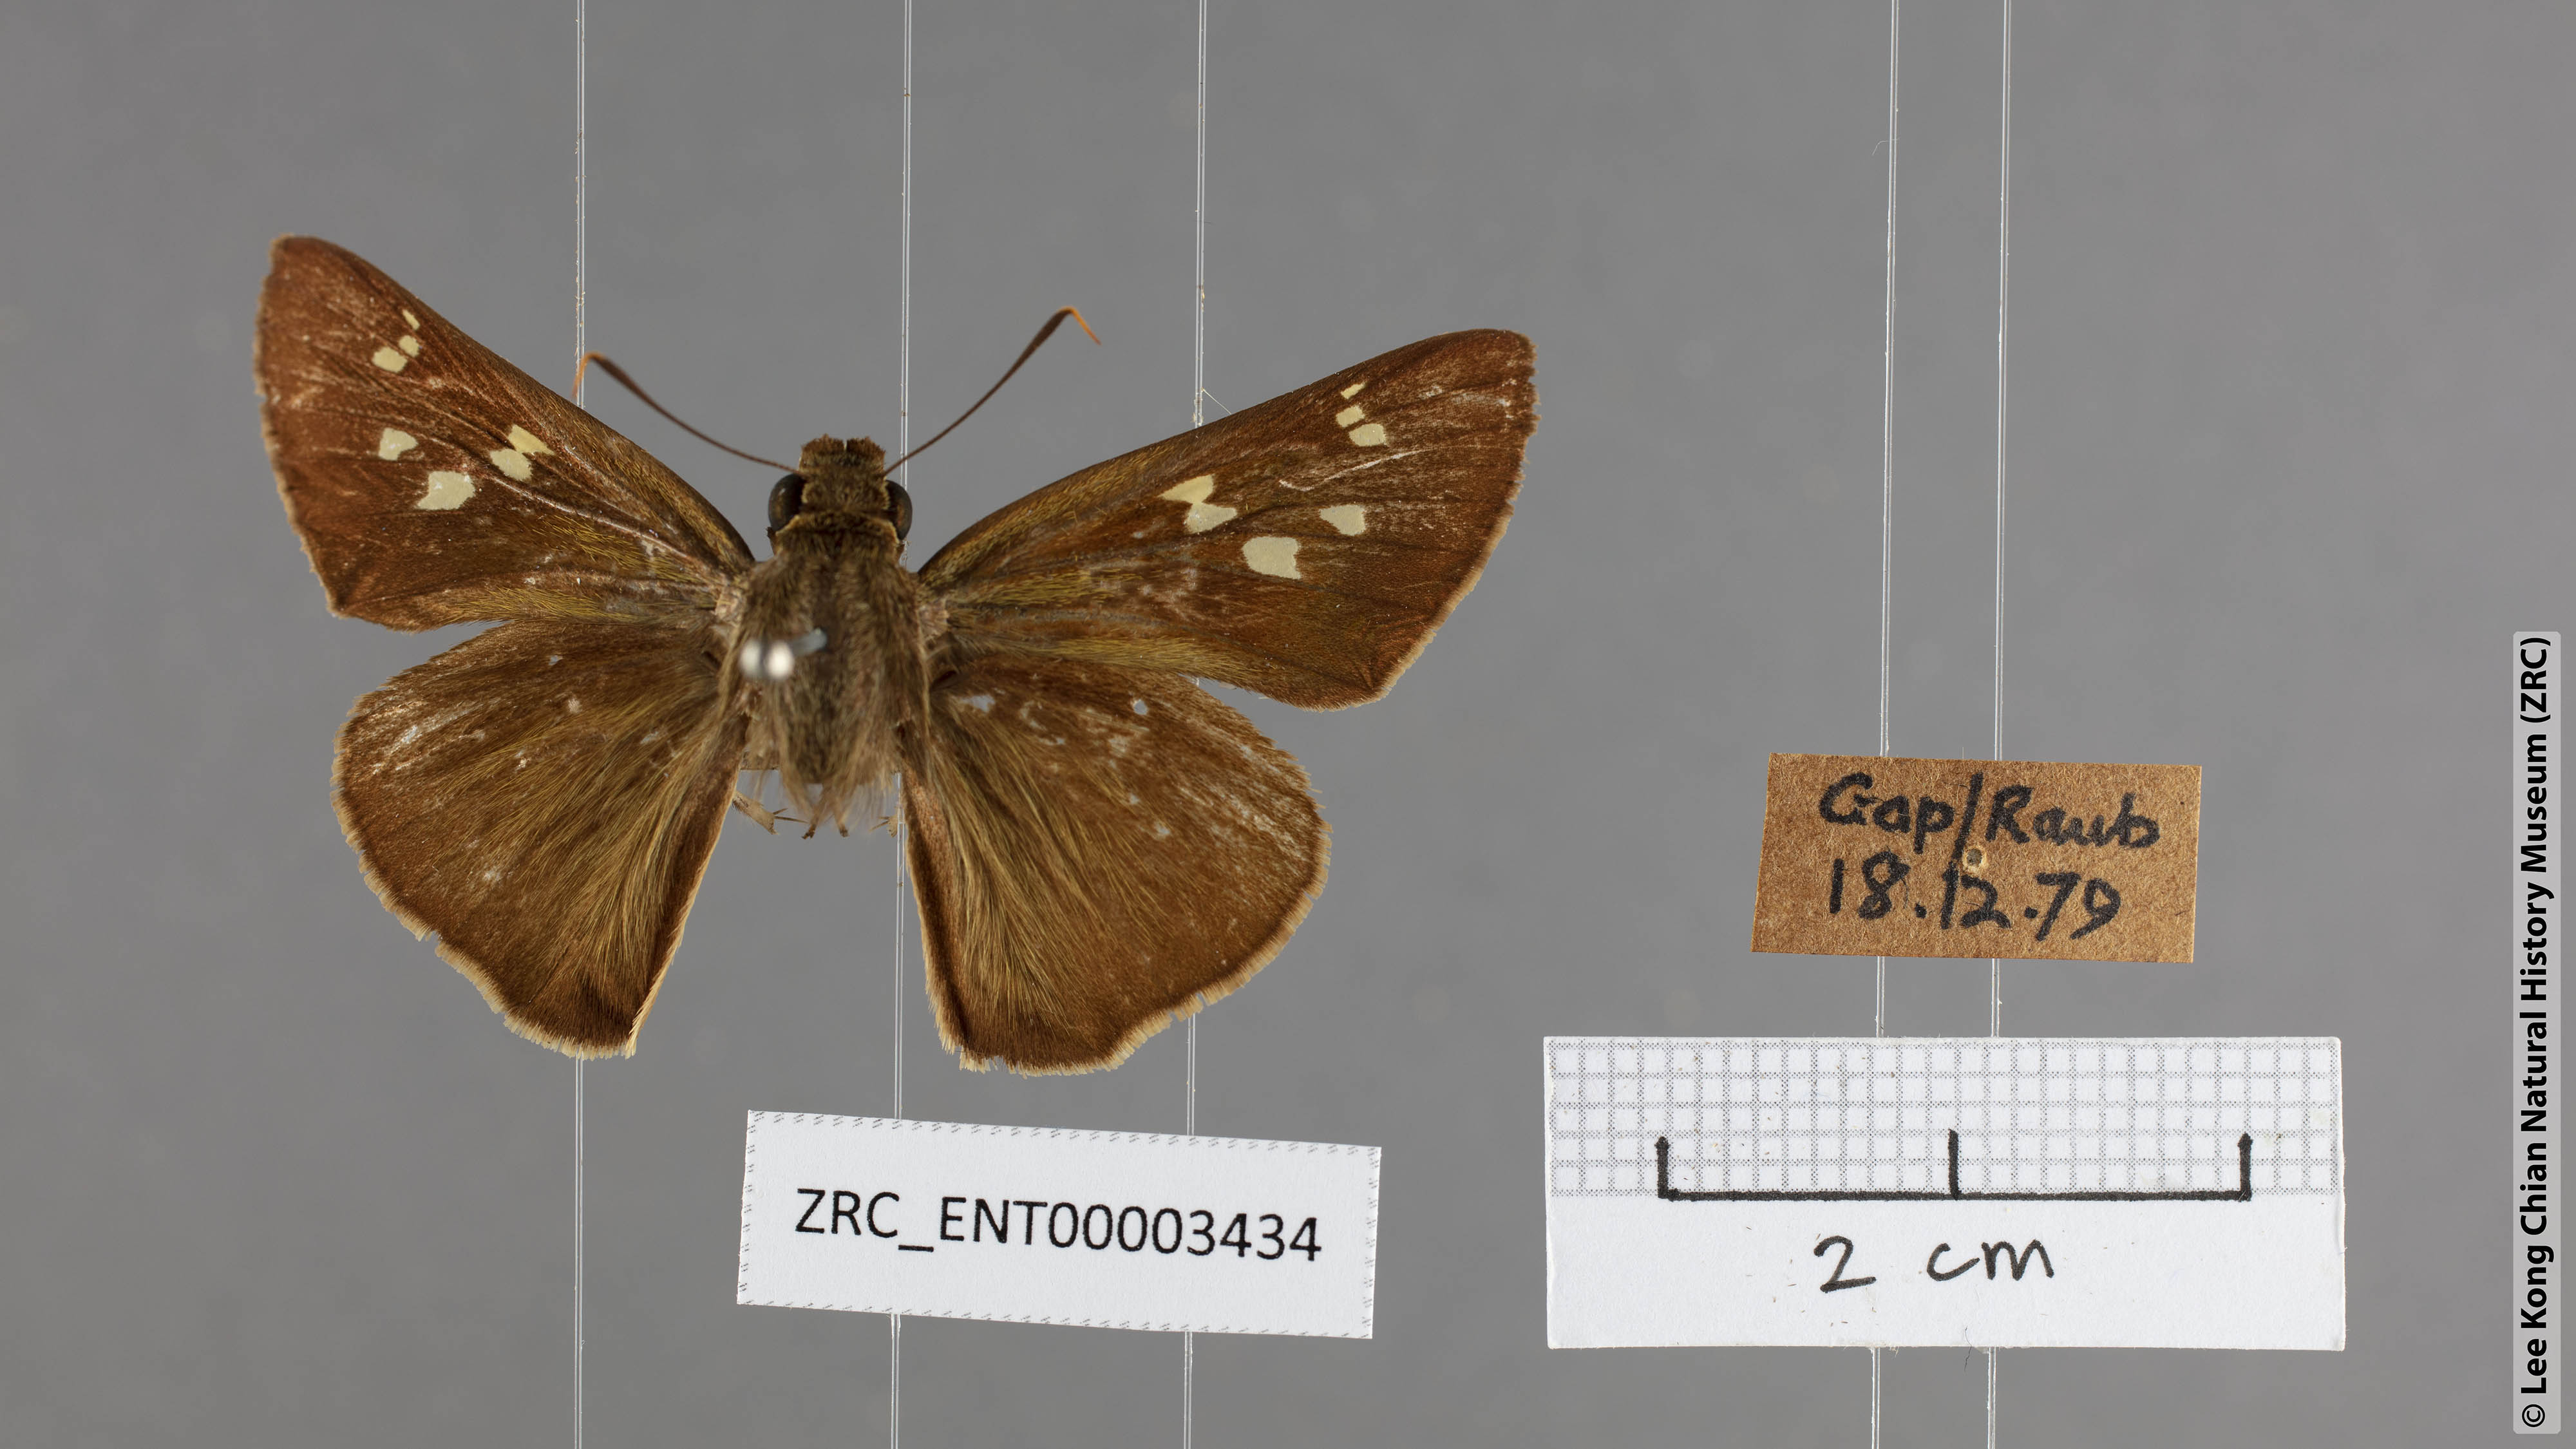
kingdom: Animalia
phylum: Arthropoda
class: Insecta
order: Lepidoptera
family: Hesperiidae
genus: Pithauria
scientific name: Pithauria stramineipennis
